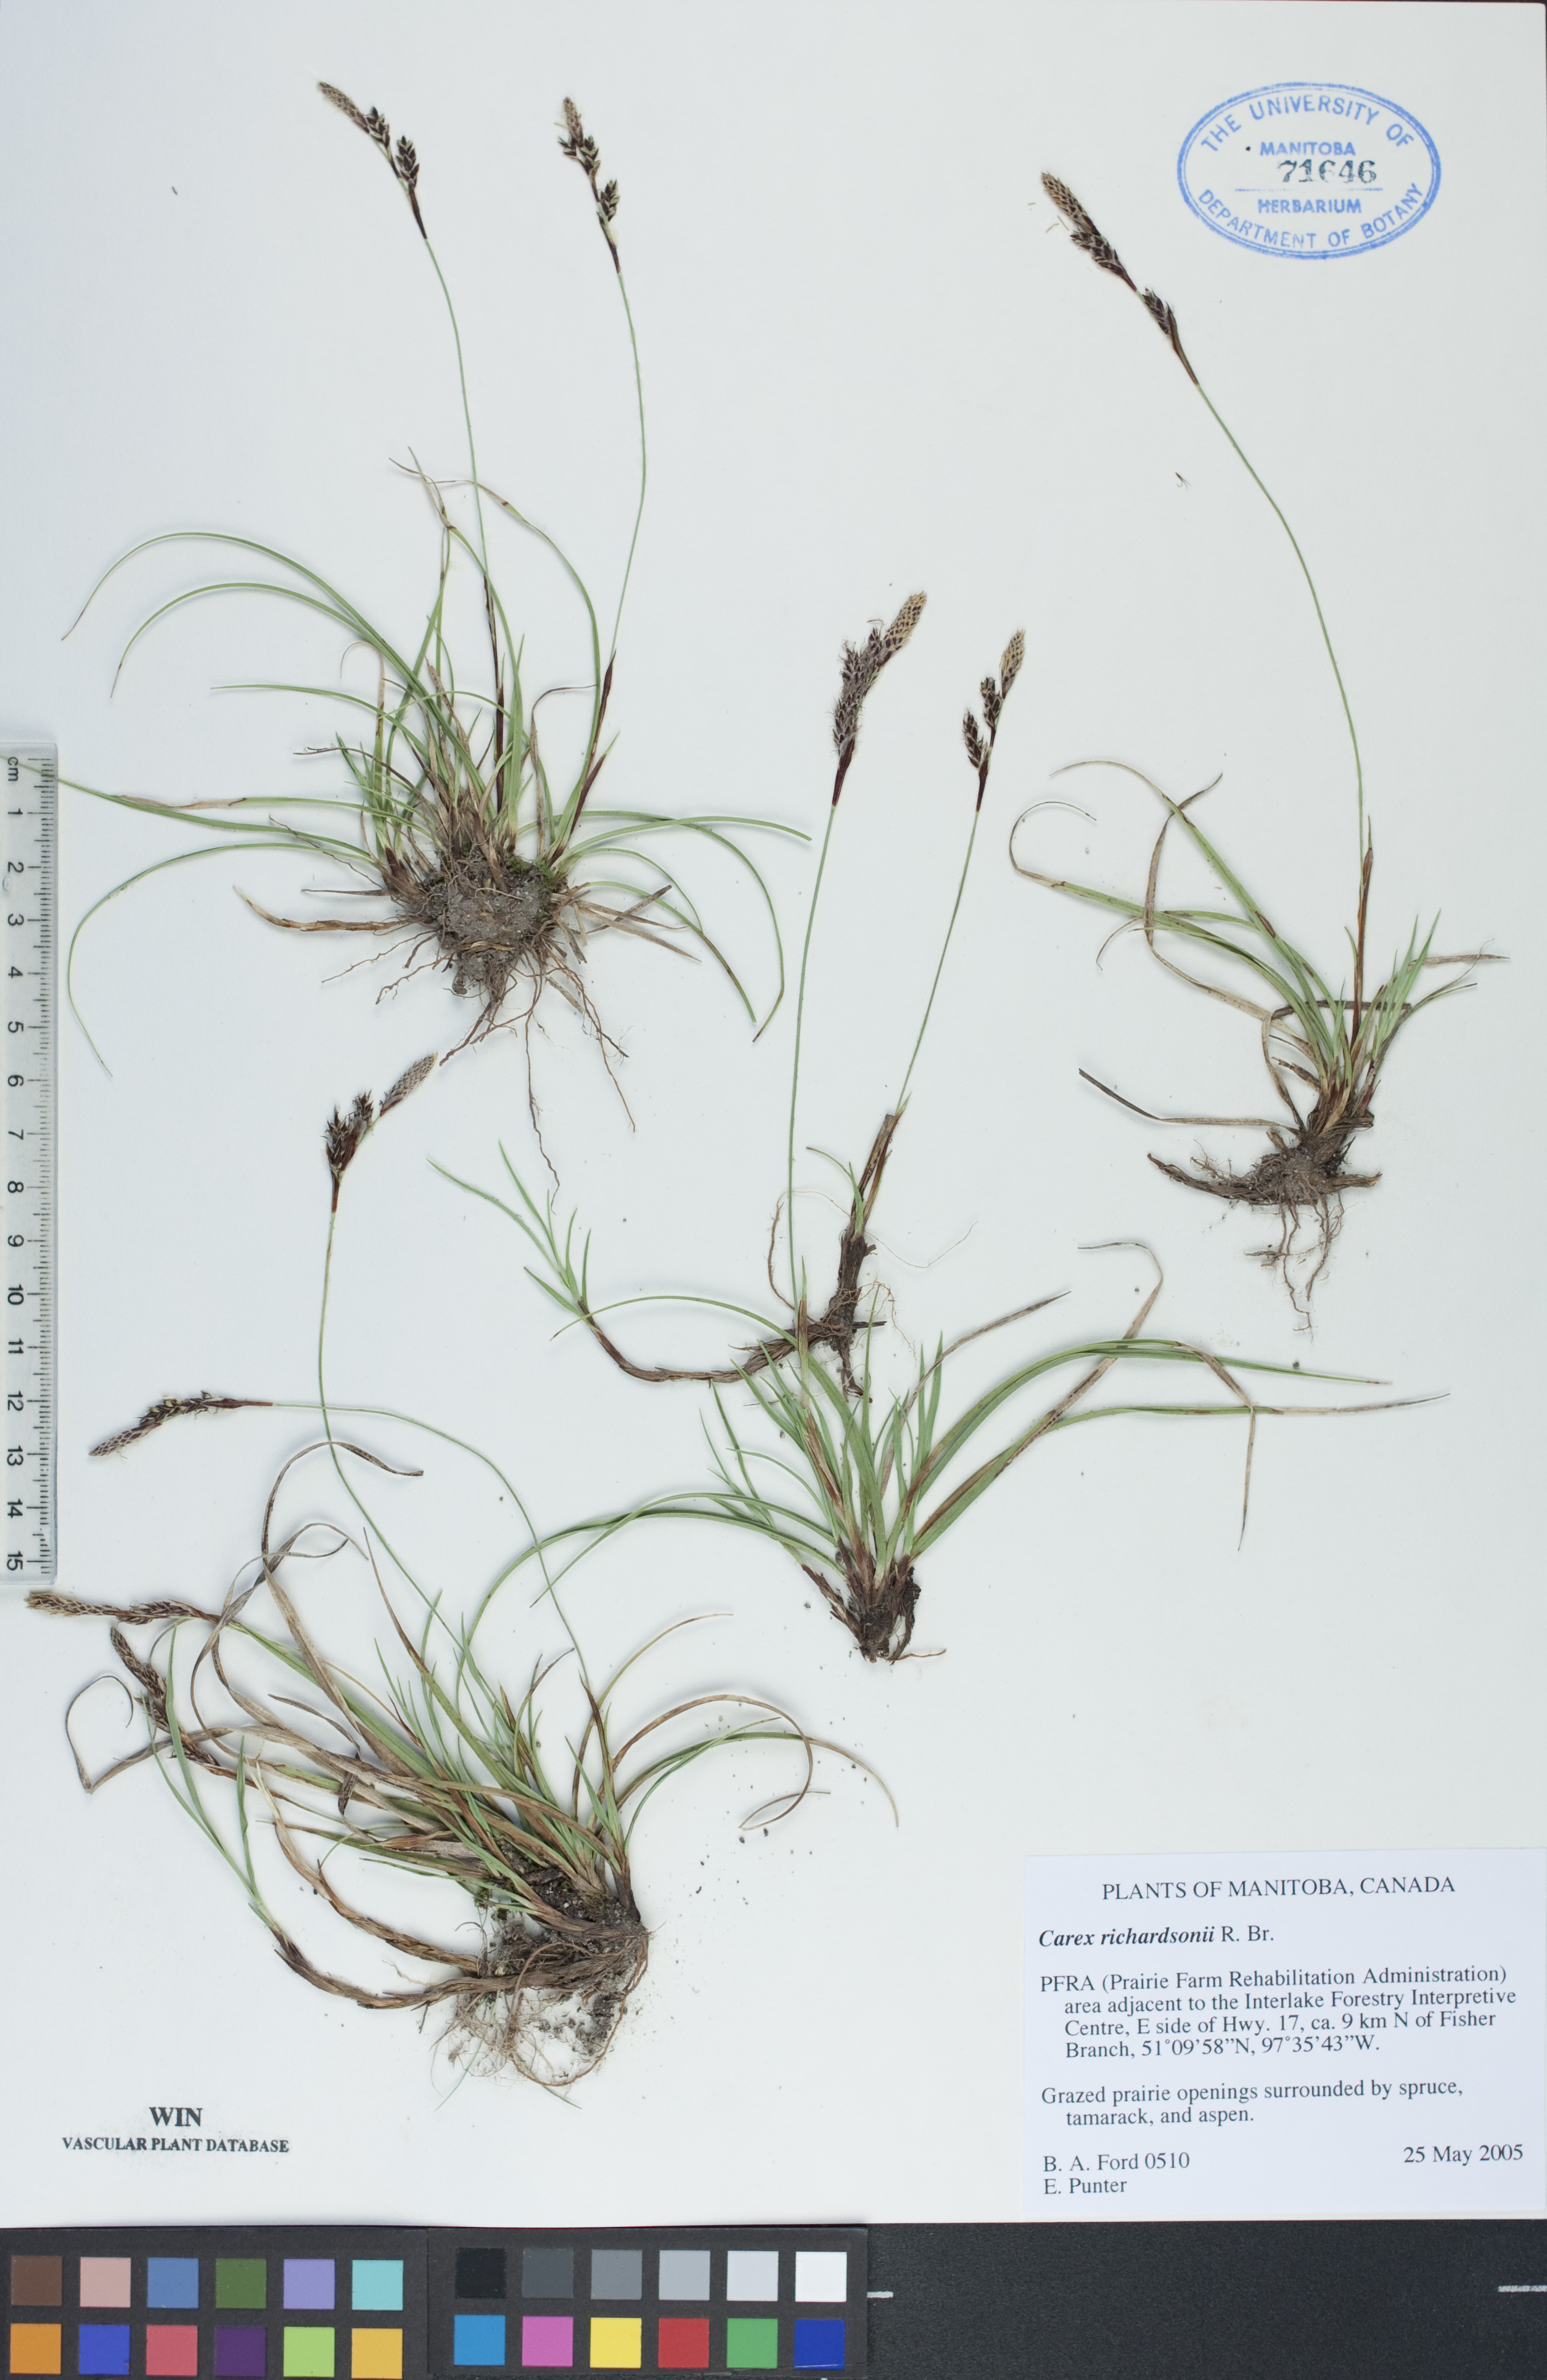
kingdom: Plantae
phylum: Tracheophyta
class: Liliopsida
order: Poales
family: Cyperaceae
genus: Carex
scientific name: Carex richardsonii
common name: Prairie hummock sedge
